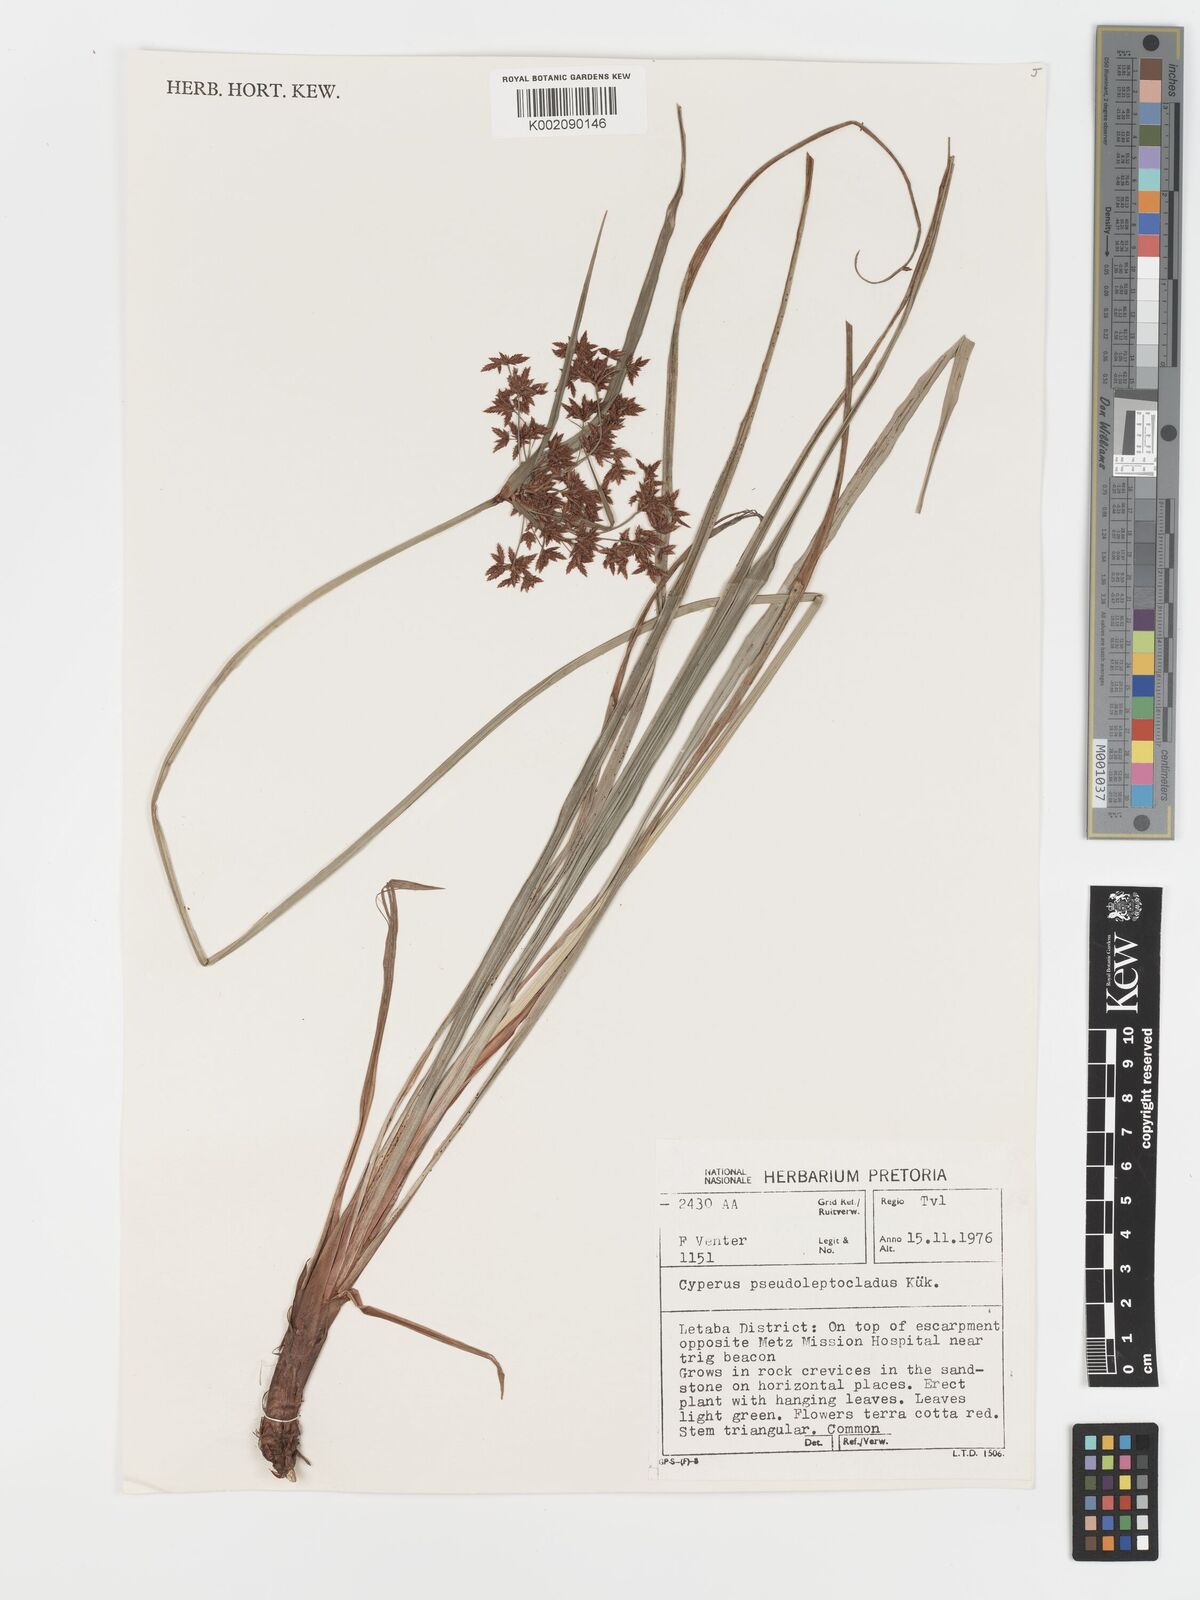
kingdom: Plantae
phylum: Tracheophyta
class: Liliopsida
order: Poales
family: Cyperaceae
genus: Cyperus
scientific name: Cyperus glaucophyllus
